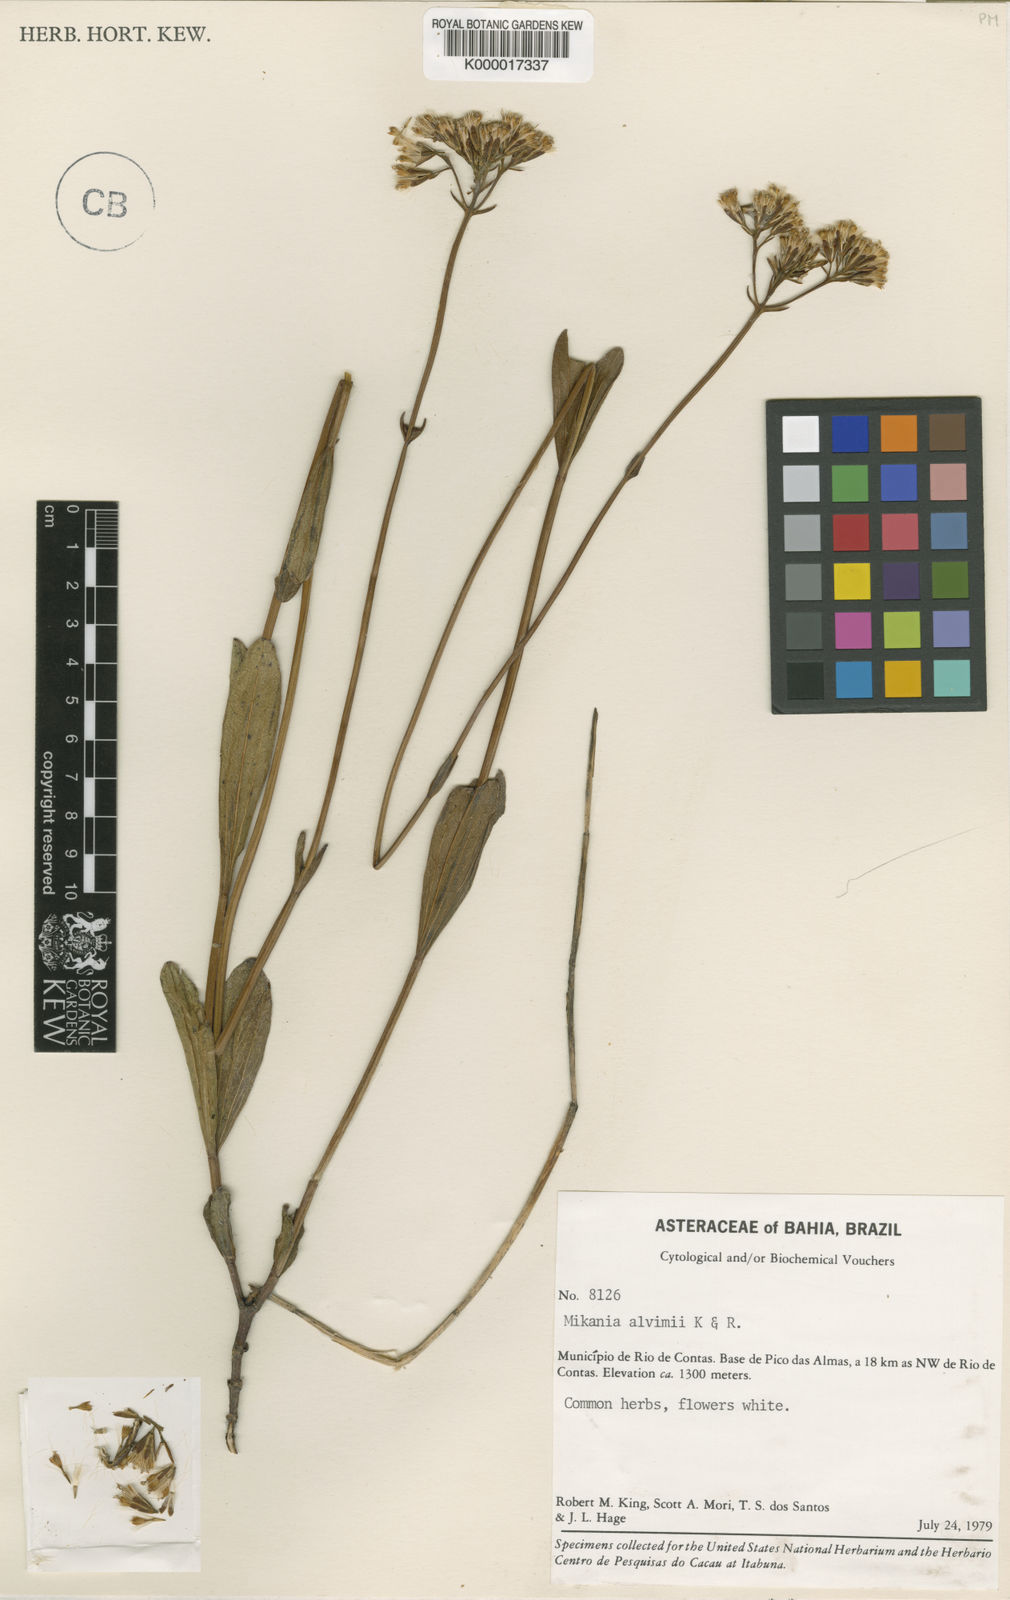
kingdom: Plantae
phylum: Tracheophyta
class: Magnoliopsida
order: Asterales
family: Asteraceae
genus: Mikania
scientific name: Mikania alvimii
